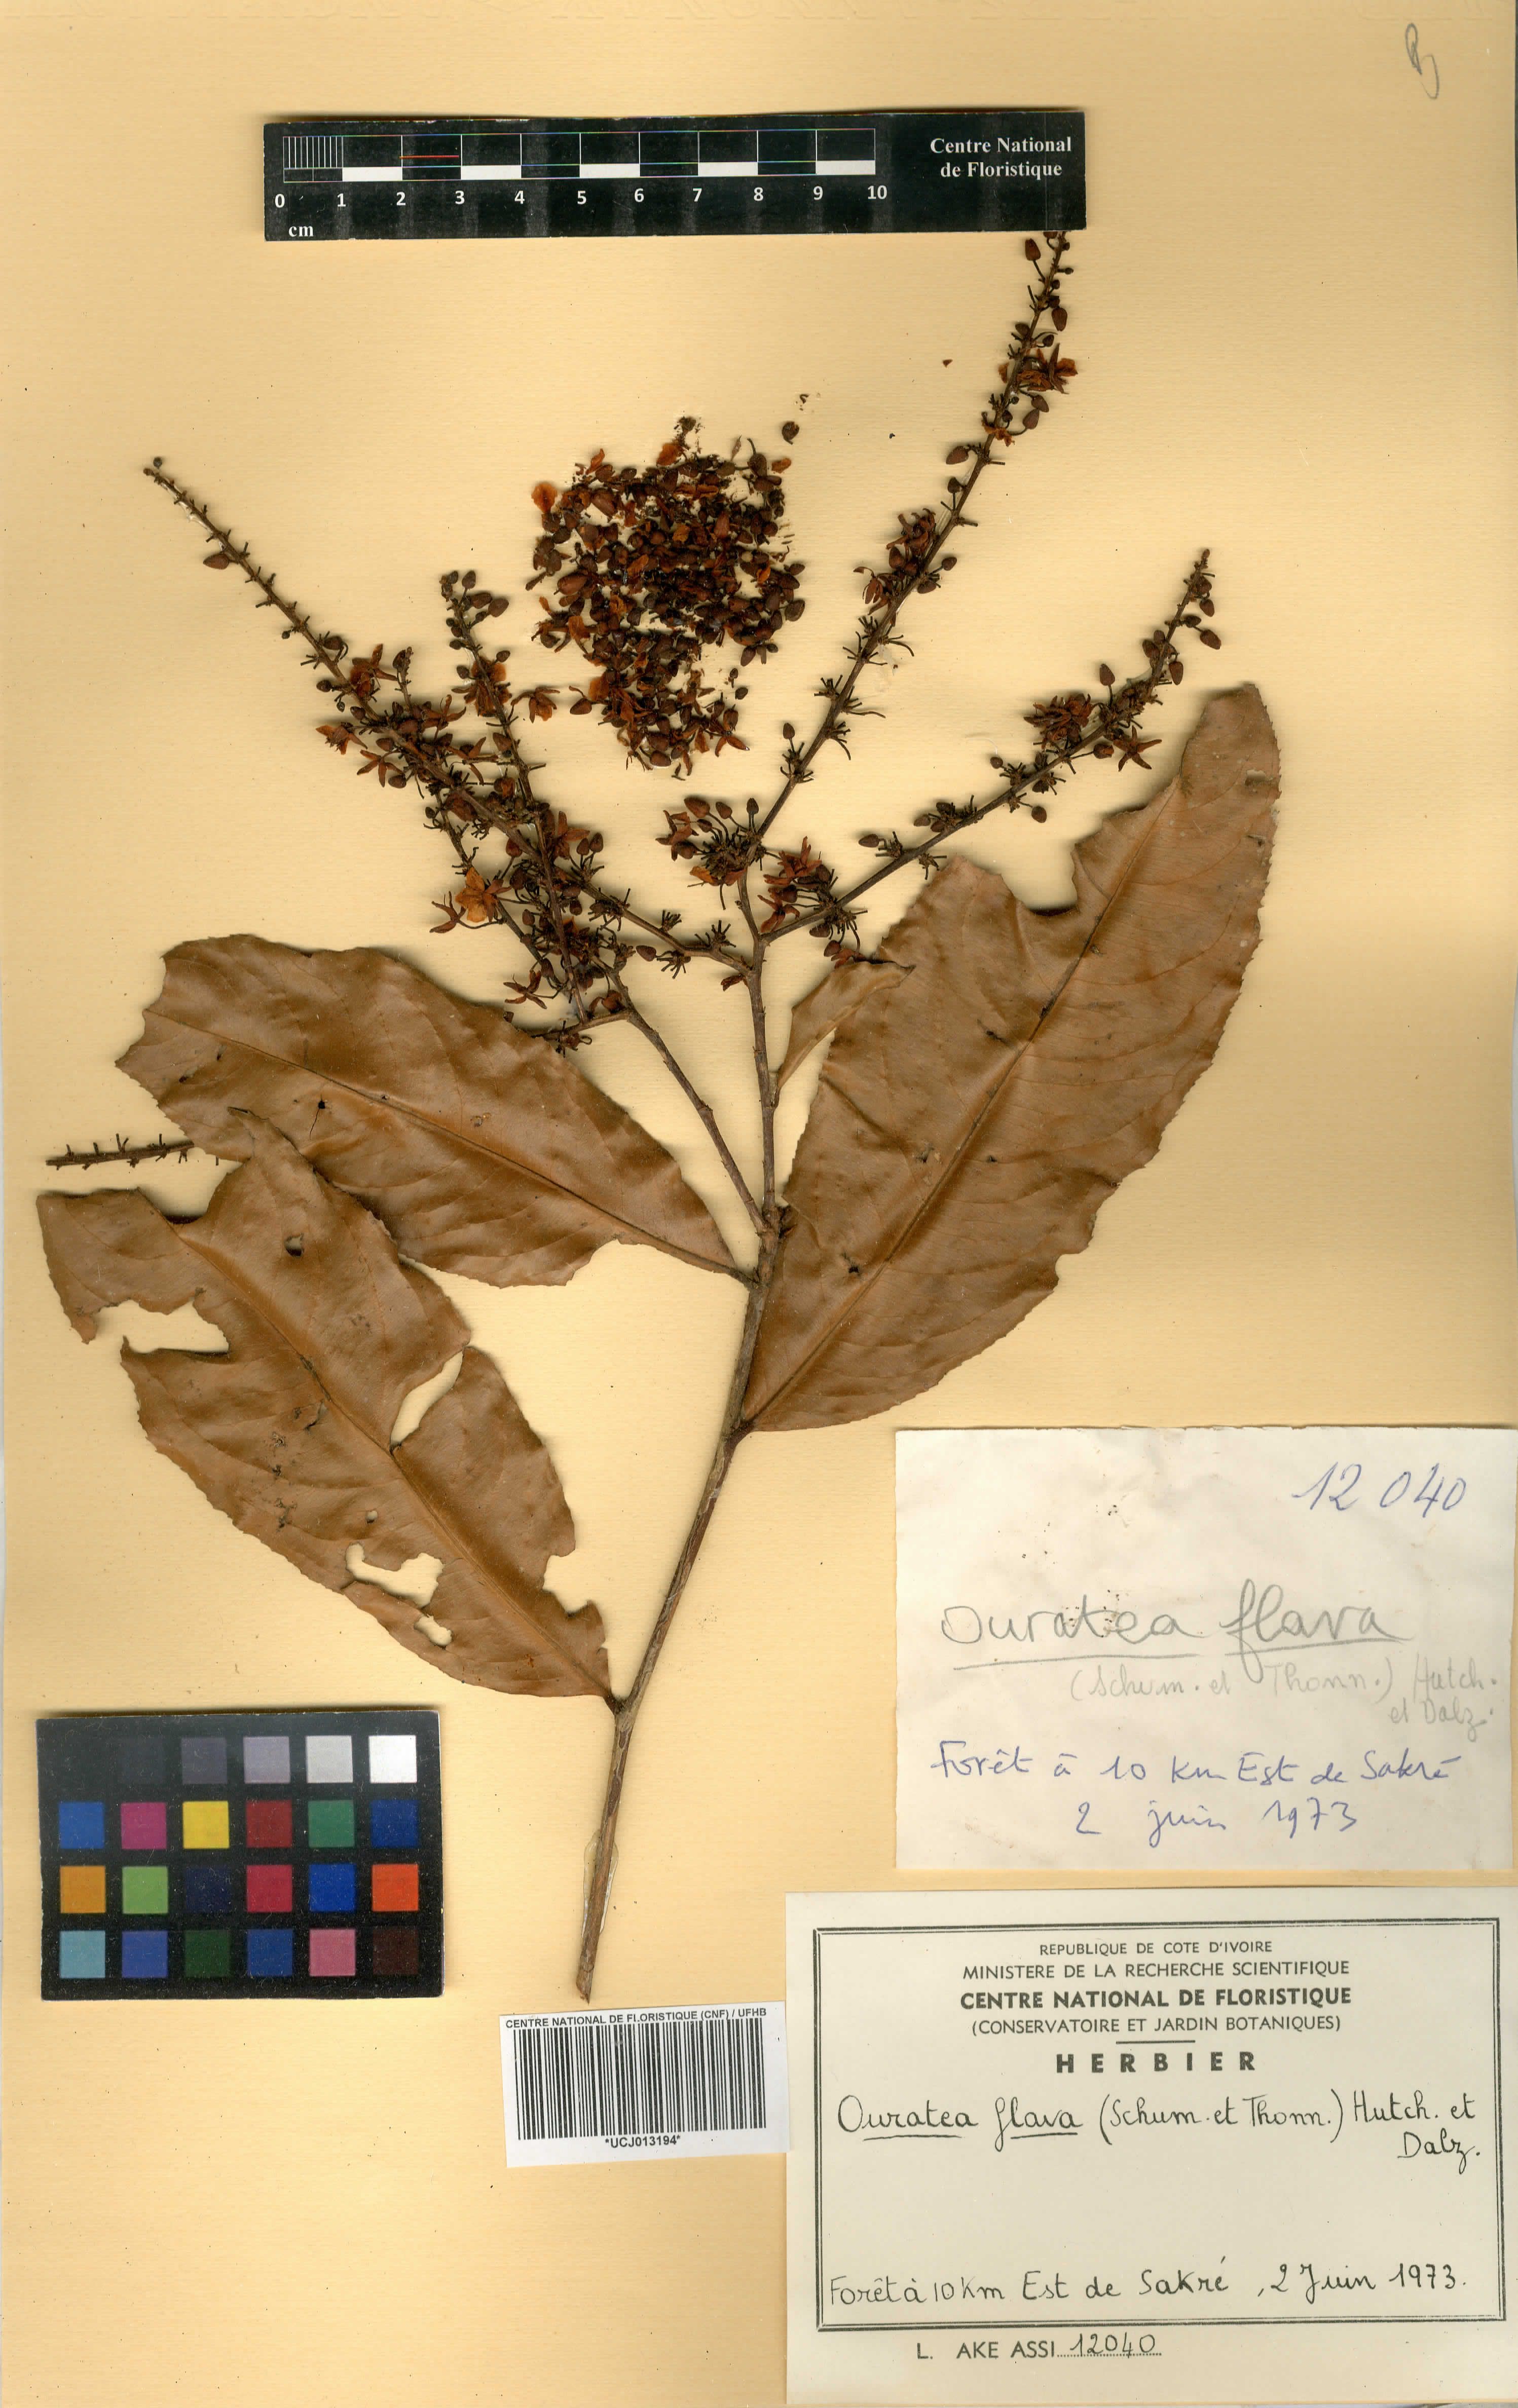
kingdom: Plantae
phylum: Tracheophyta
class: Magnoliopsida
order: Malpighiales
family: Ochnaceae
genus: Campylospermum
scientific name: Campylospermum flavum
